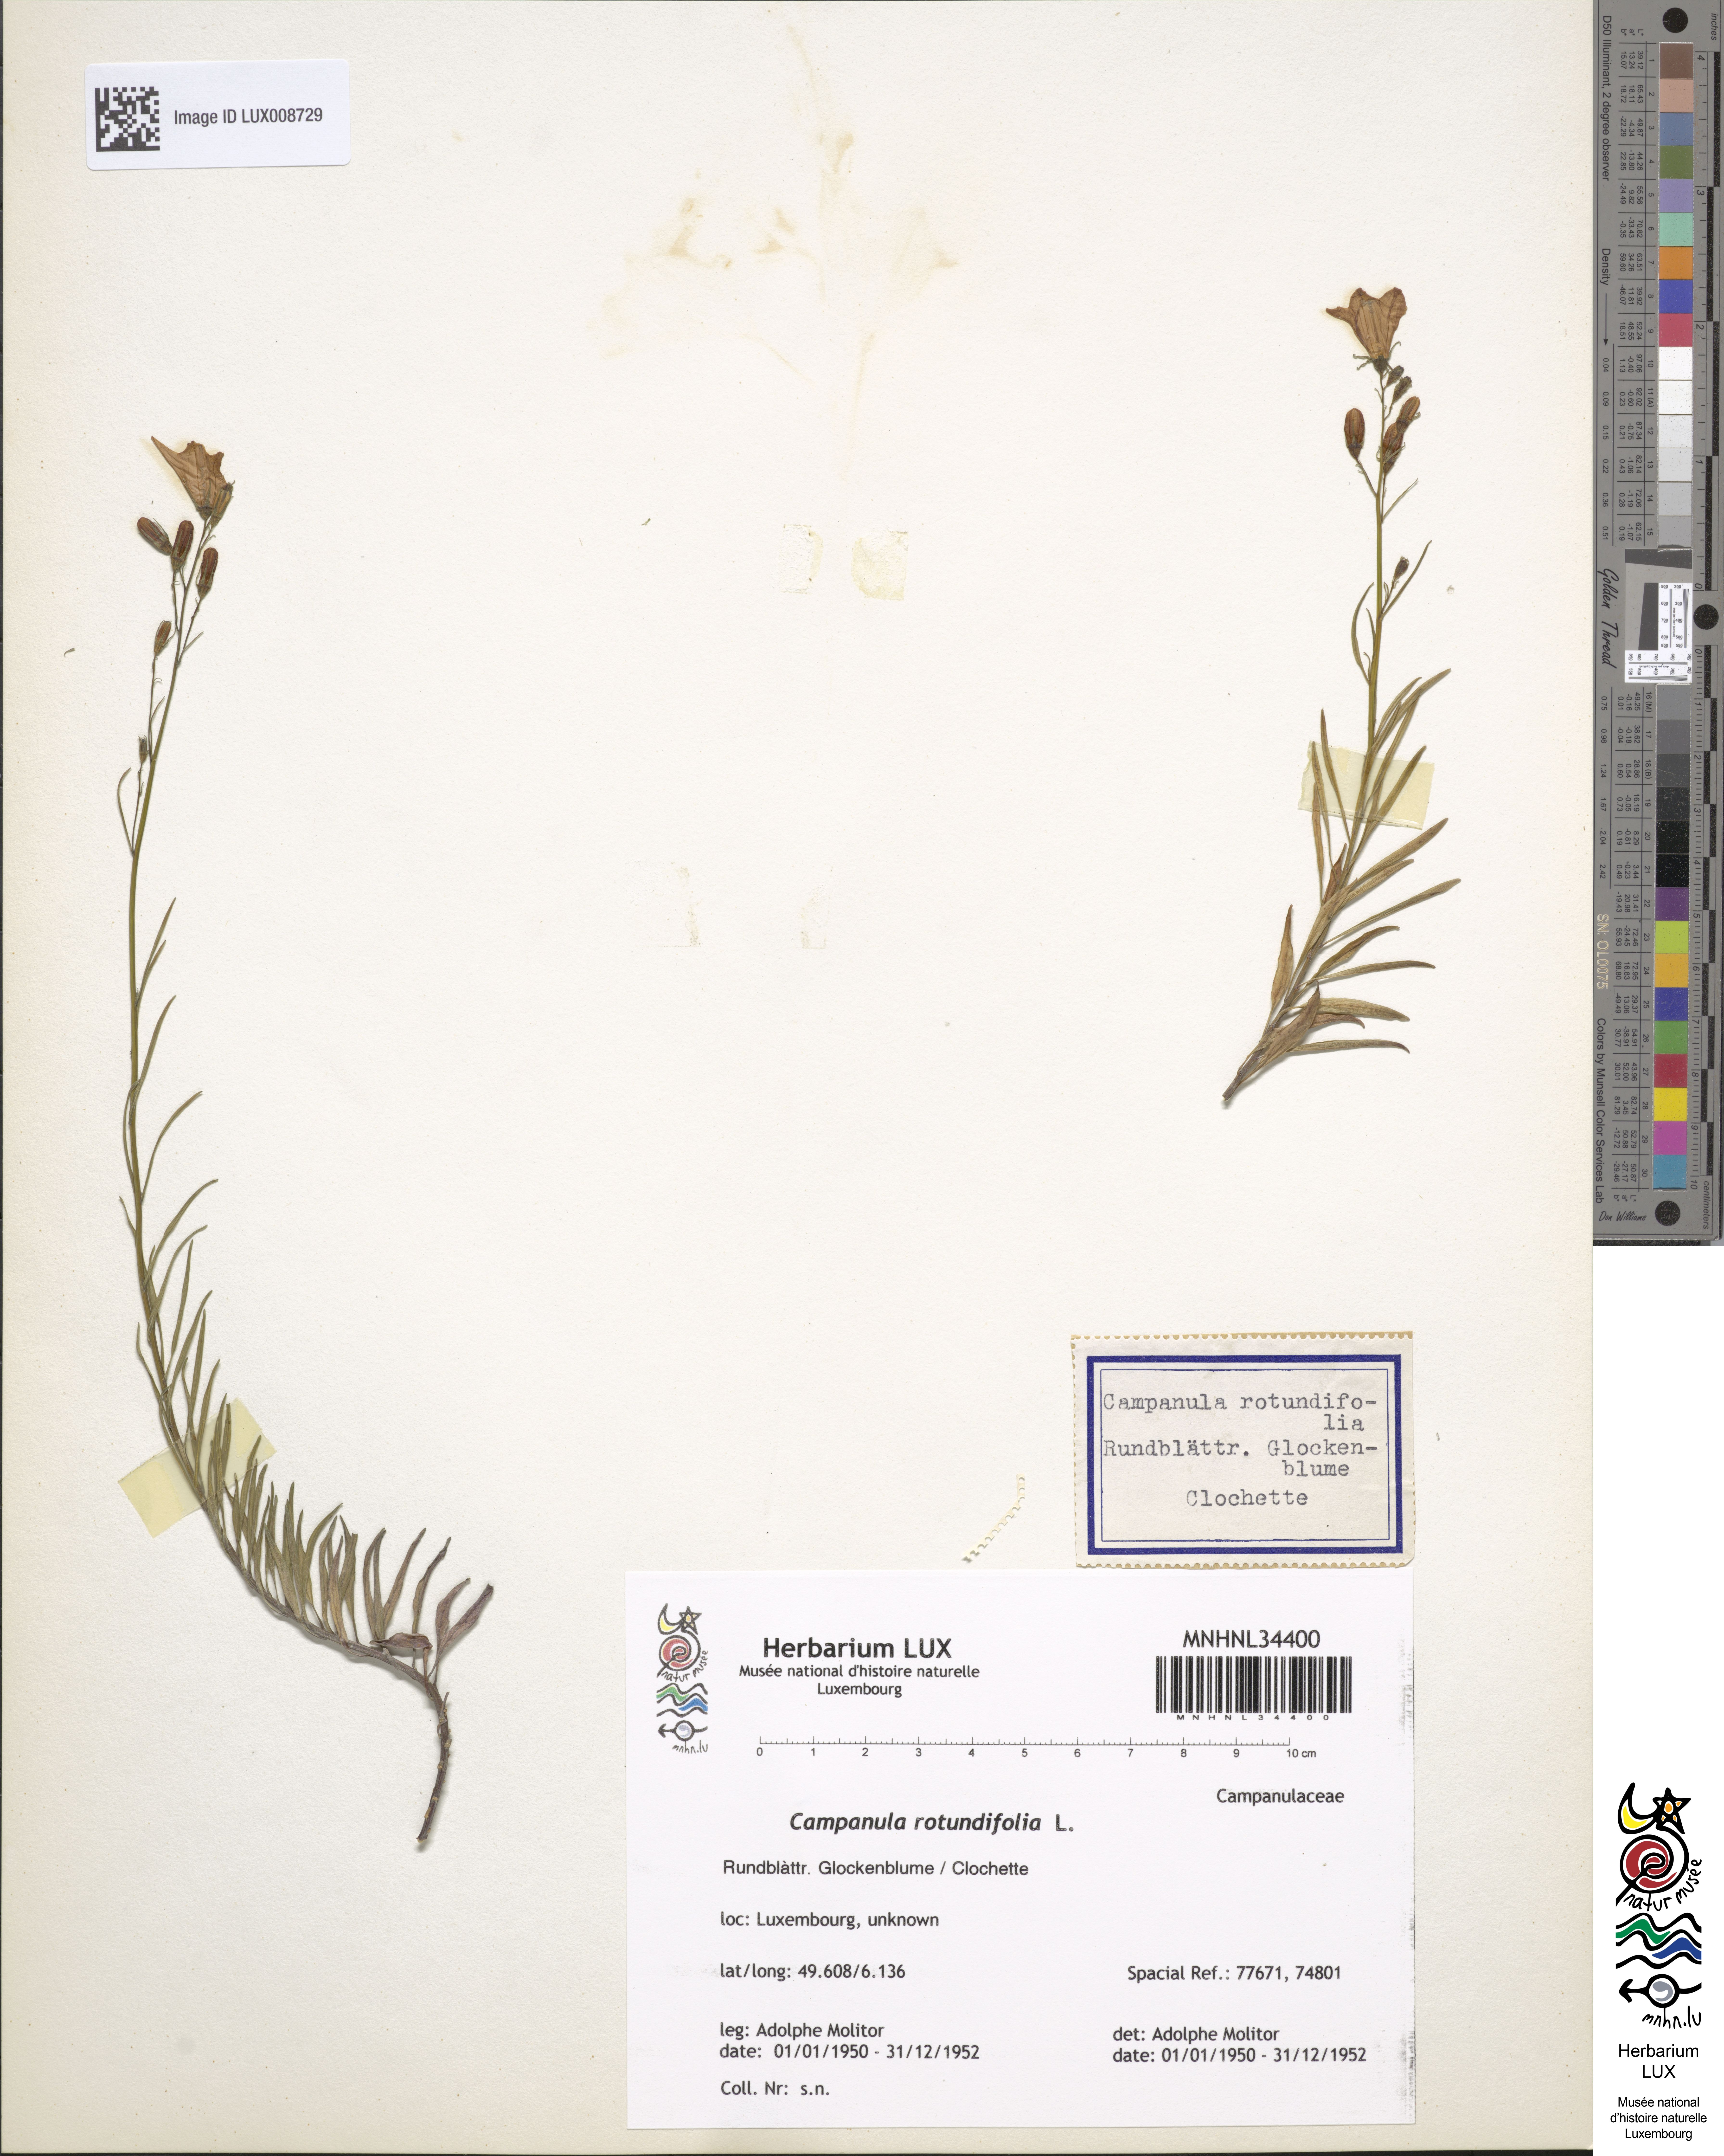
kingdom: Plantae
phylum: Tracheophyta
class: Magnoliopsida
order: Asterales
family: Campanulaceae
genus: Campanula
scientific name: Campanula rotundifolia
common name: Harebell
